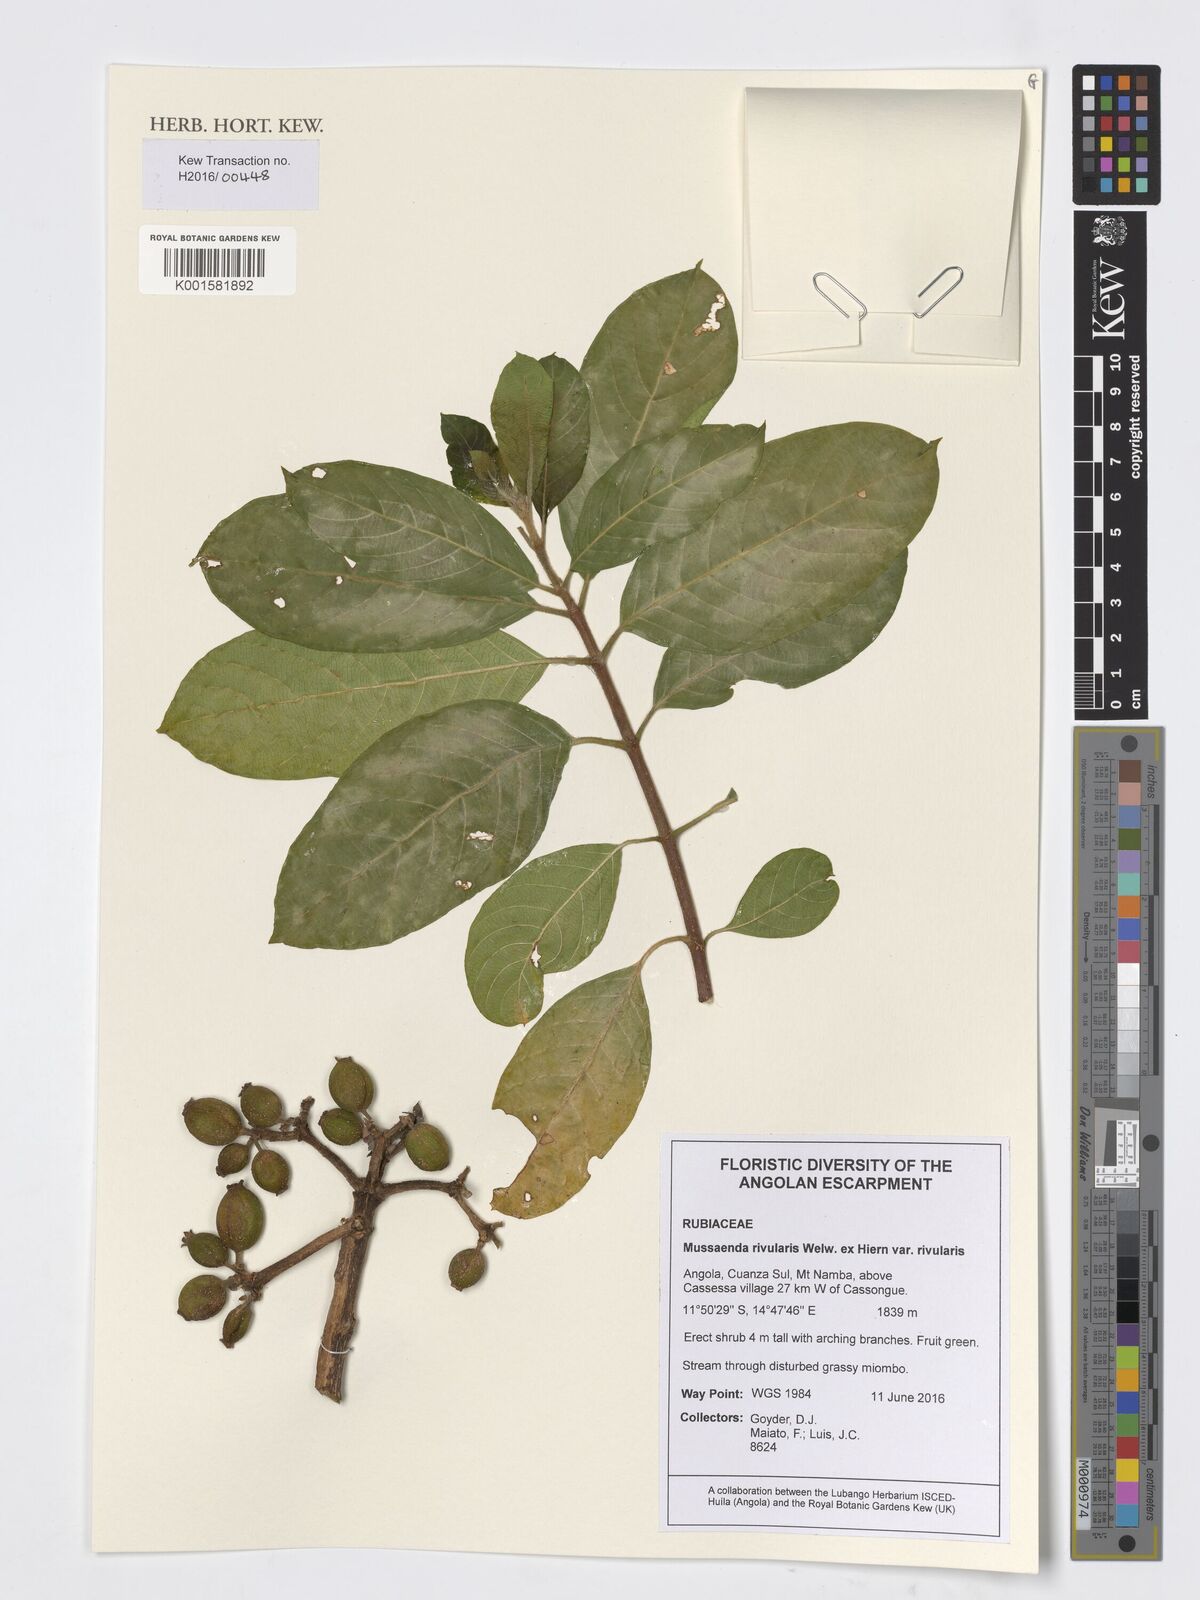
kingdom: Plantae
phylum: Tracheophyta
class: Magnoliopsida
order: Gentianales
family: Rubiaceae
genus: Mussaenda
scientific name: Mussaenda rivularis
